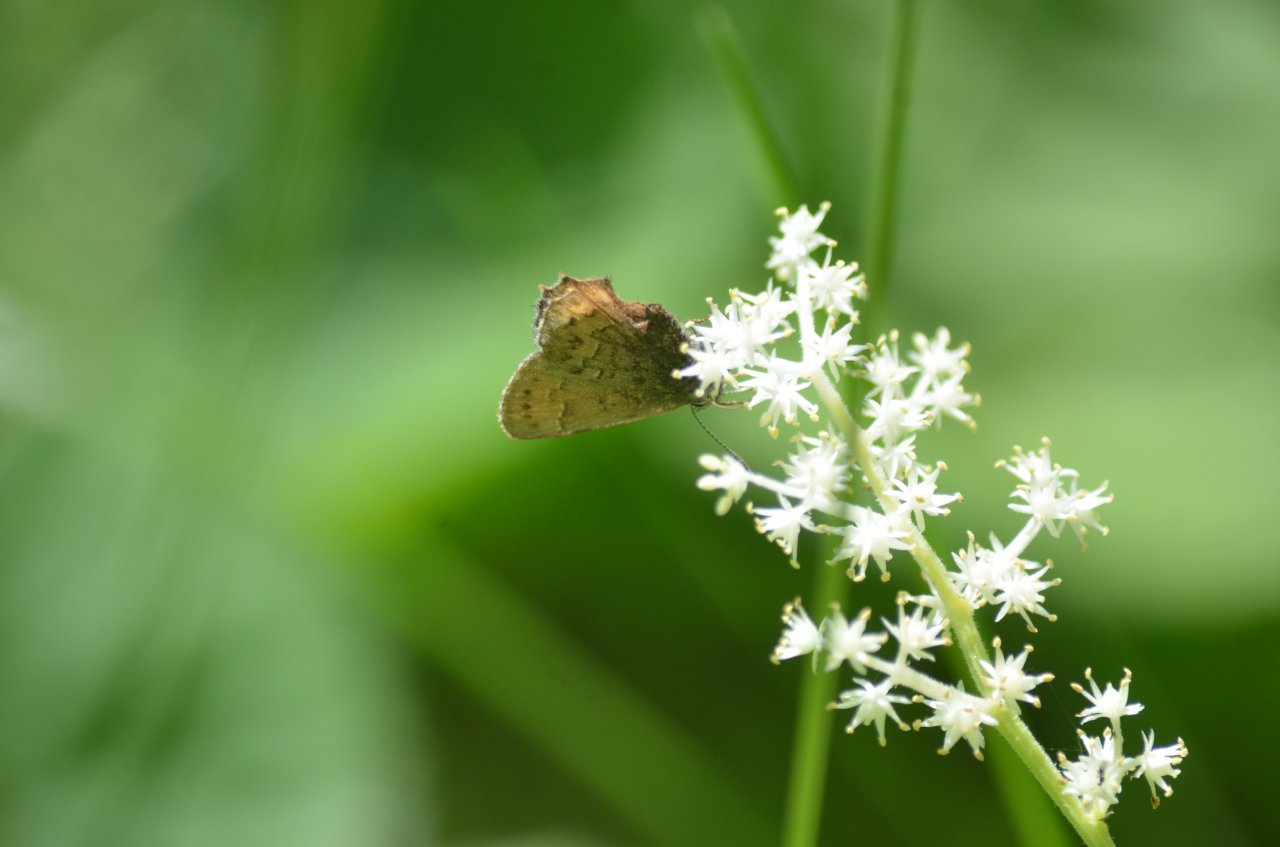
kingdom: Animalia
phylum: Arthropoda
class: Insecta
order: Lepidoptera
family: Lycaenidae
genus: Incisalia
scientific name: Incisalia niphon
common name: Eastern Pine Elfin
